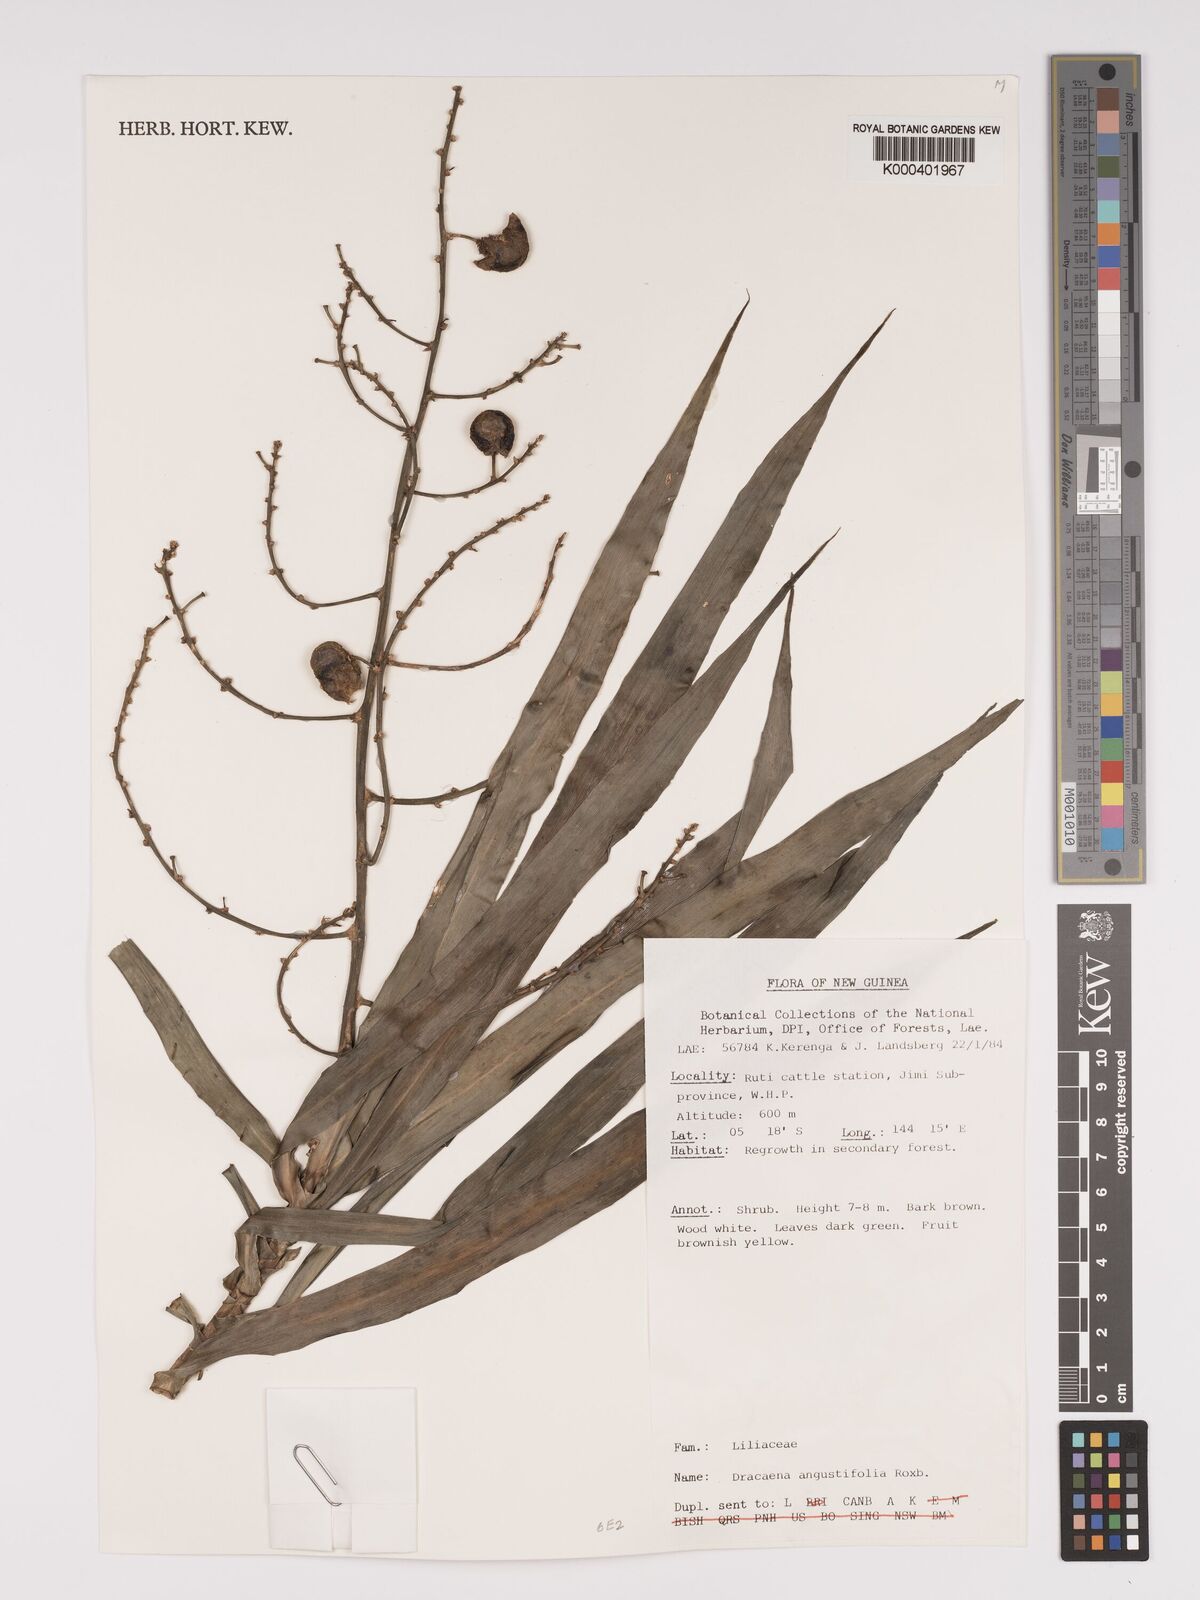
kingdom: Plantae
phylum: Tracheophyta
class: Liliopsida
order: Asparagales
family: Asparagaceae
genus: Dracaena
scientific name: Dracaena angustifolia
